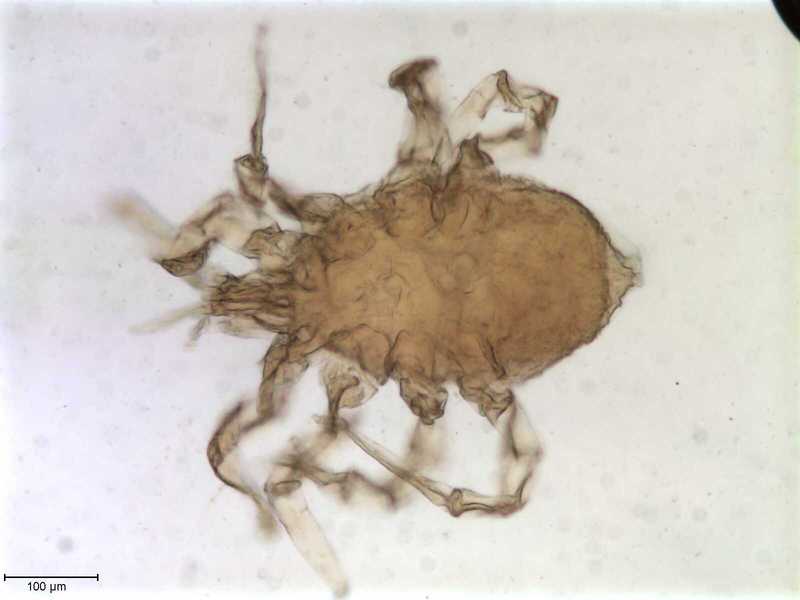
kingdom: Animalia
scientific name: Animalia
